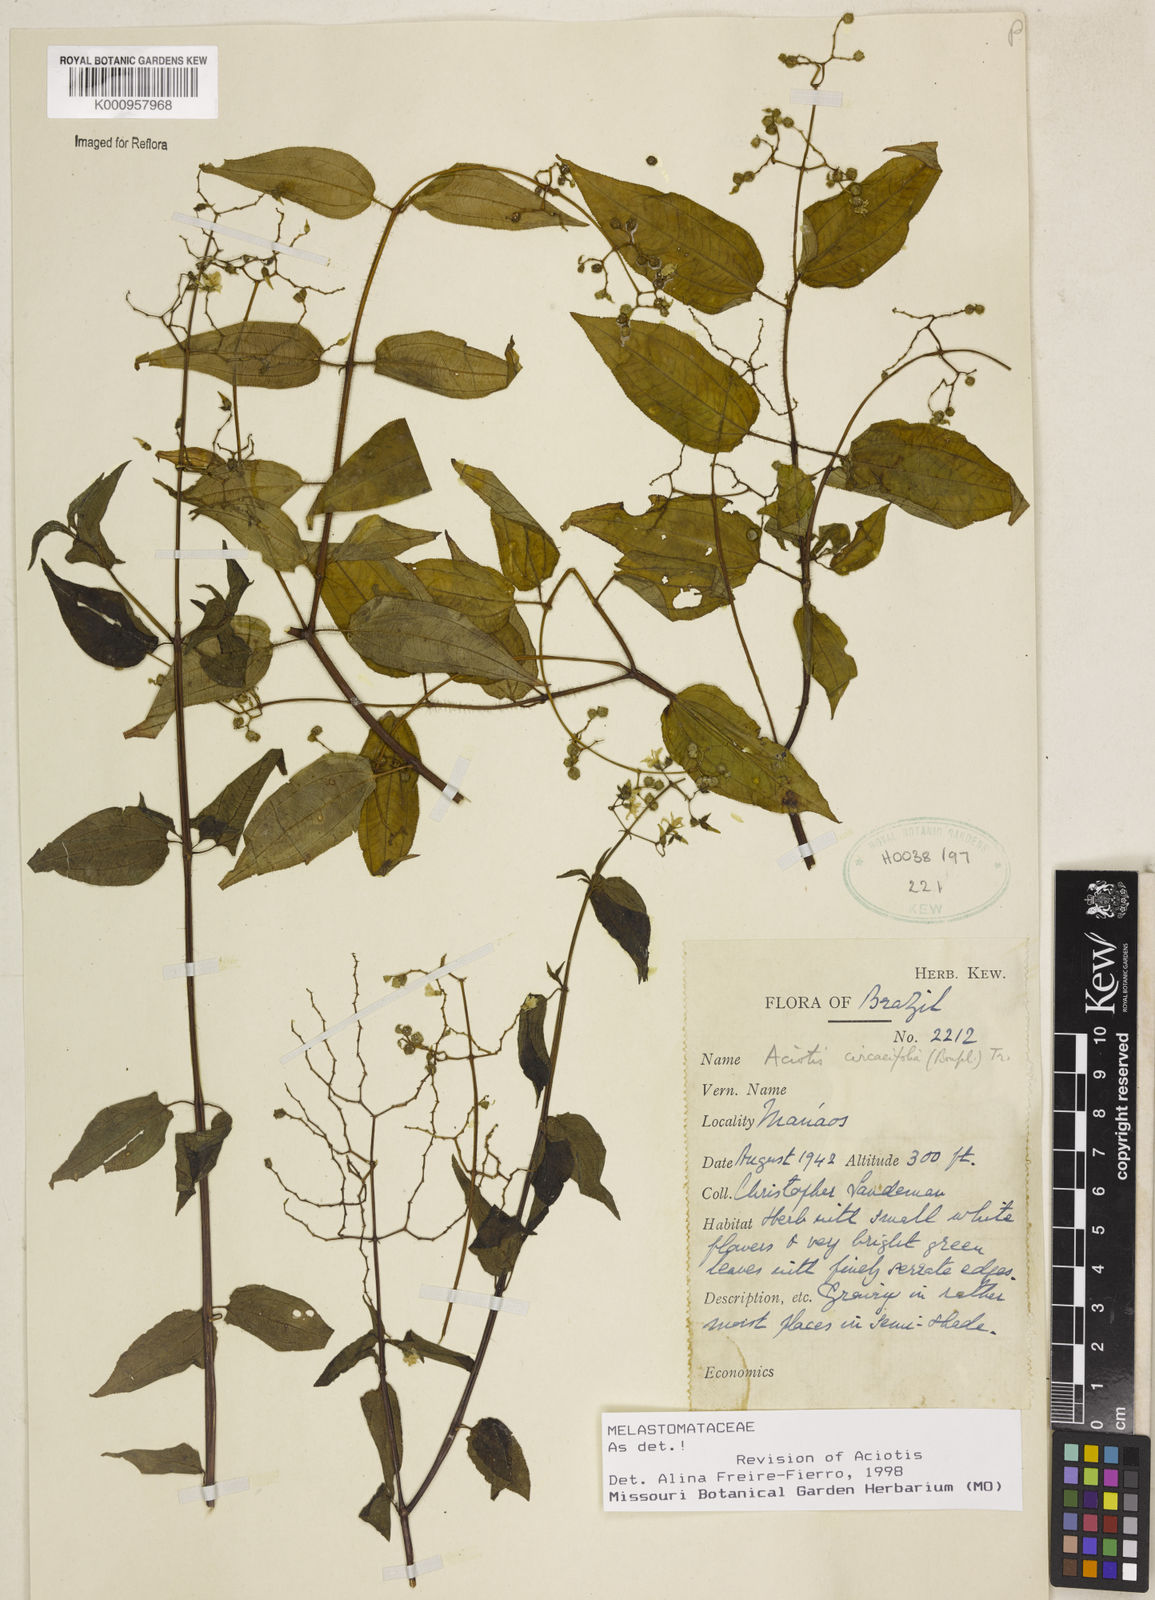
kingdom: Plantae
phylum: Tracheophyta
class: Magnoliopsida
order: Myrtales
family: Melastomataceae
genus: Aciotis
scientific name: Aciotis circaeifolia
